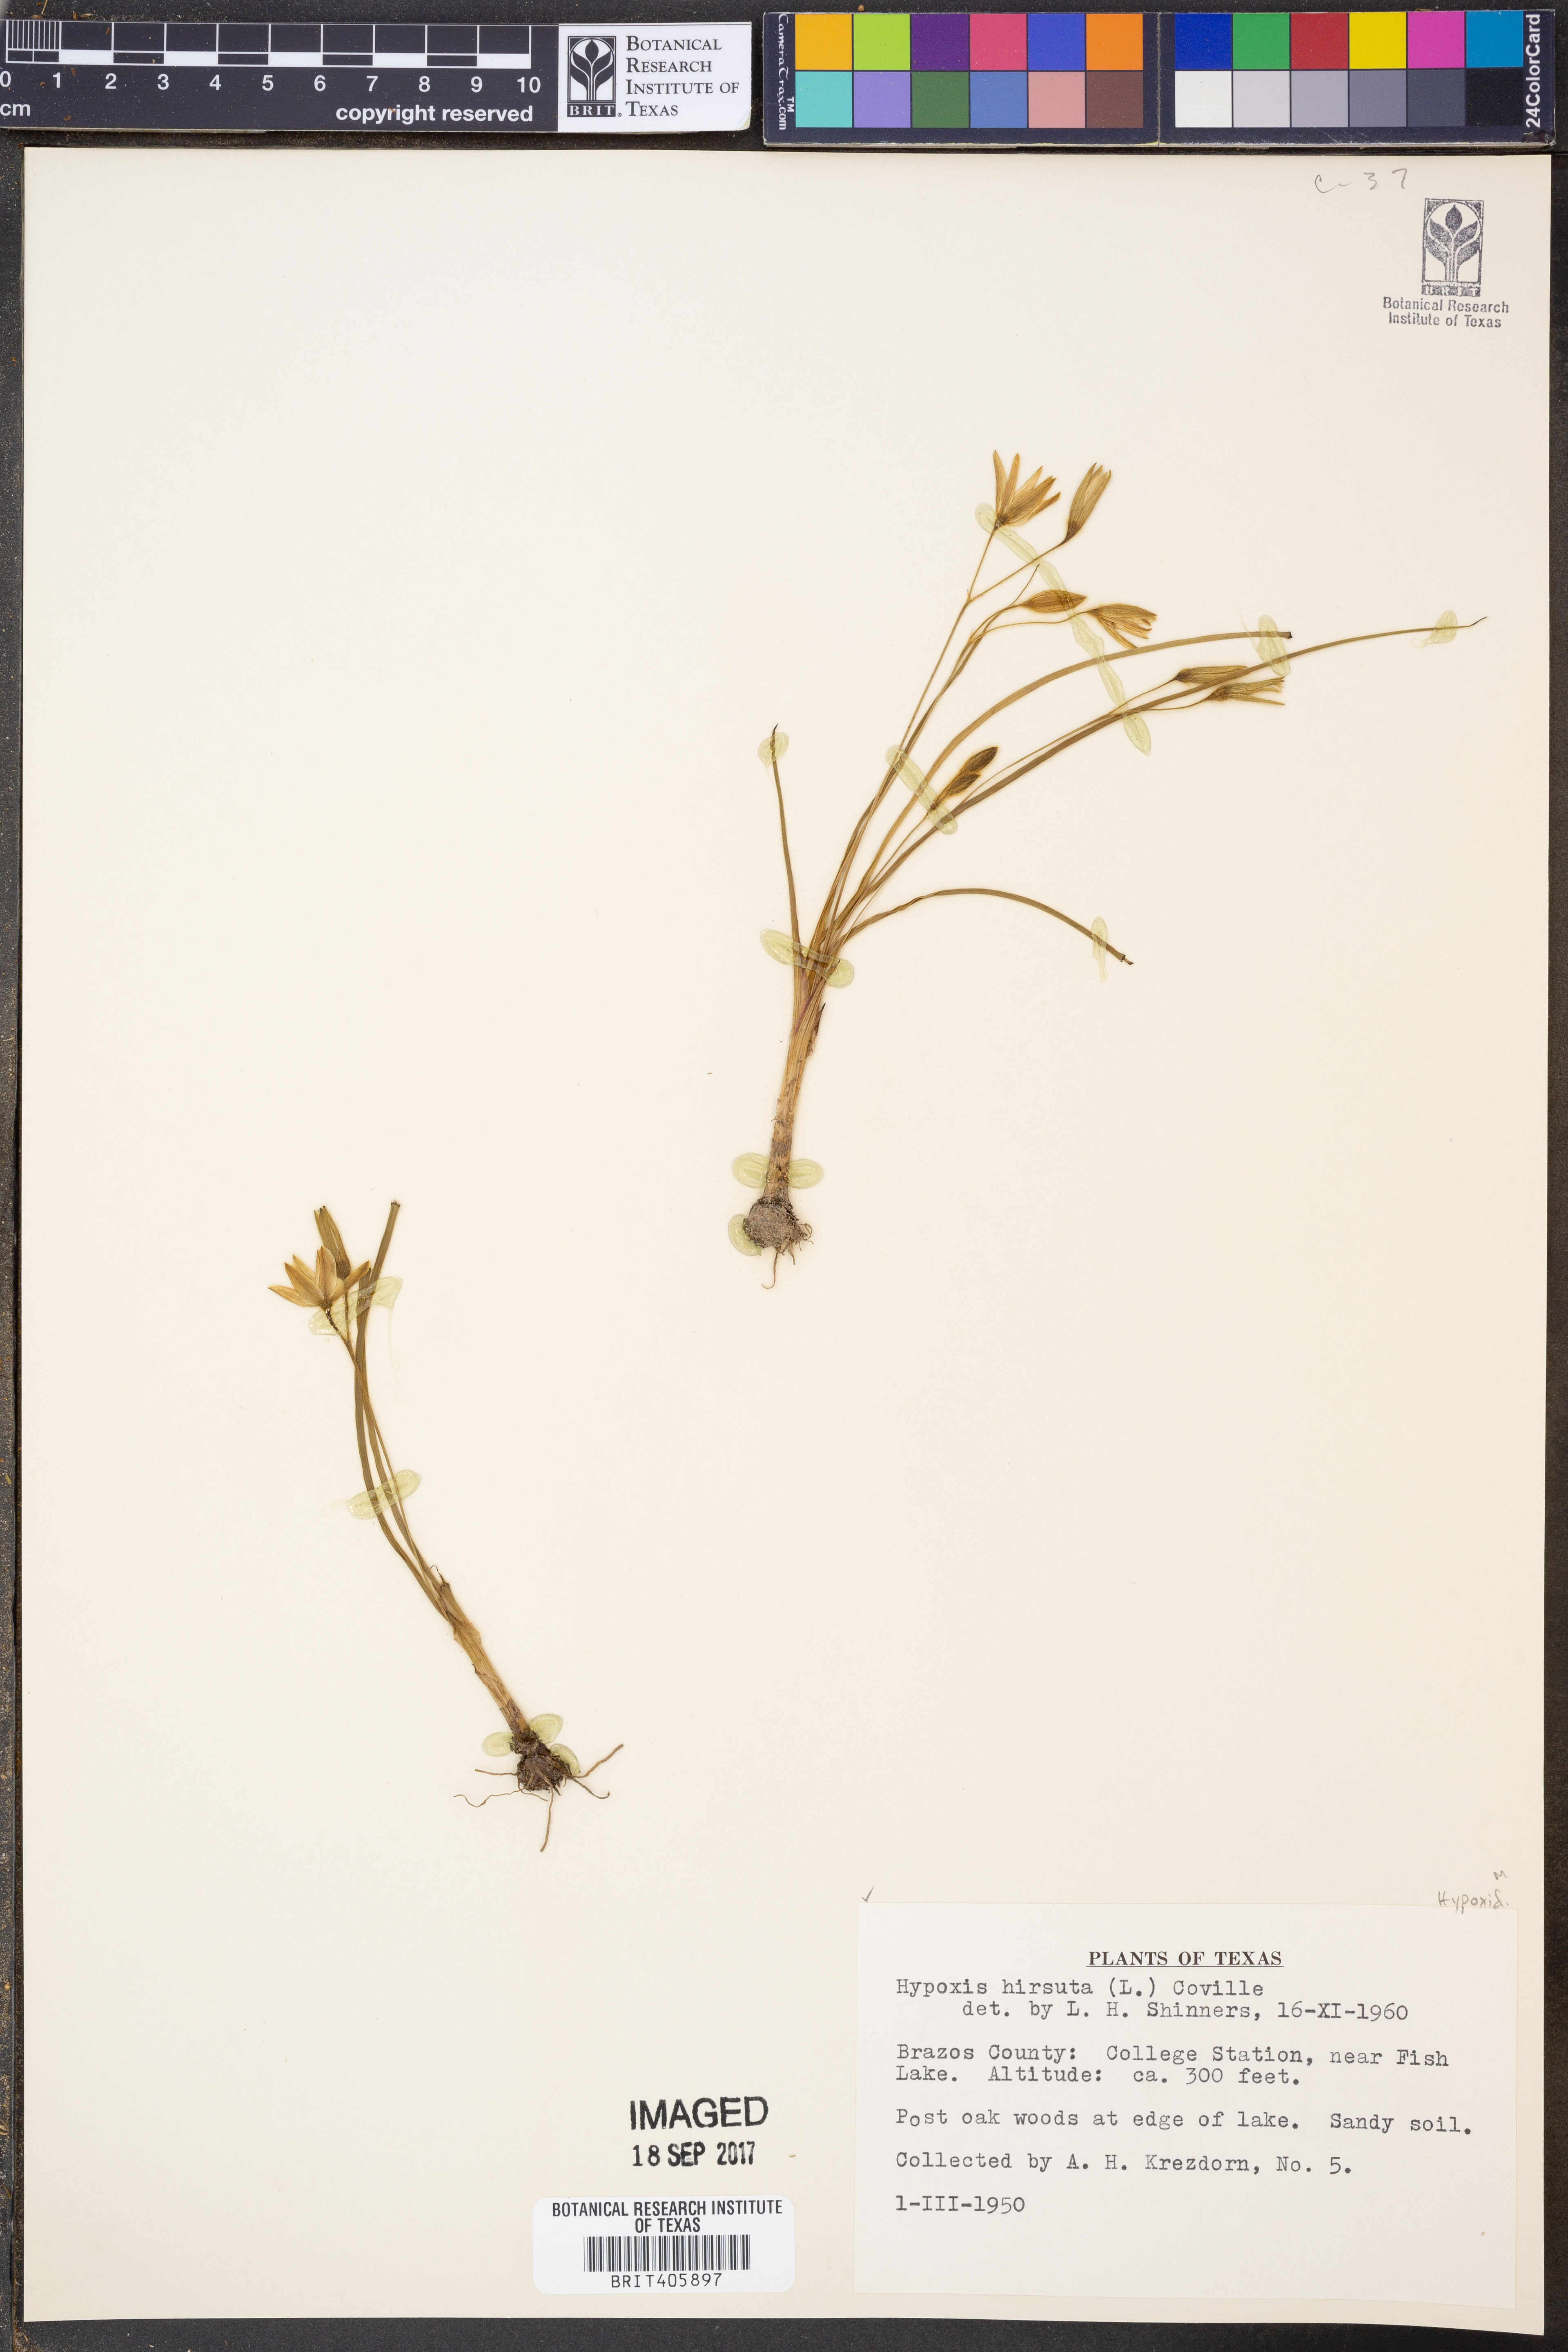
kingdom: Plantae
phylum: Tracheophyta
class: Liliopsida
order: Asparagales
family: Hypoxidaceae
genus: Hypoxis
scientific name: Hypoxis hirsuta
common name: Common goldstar
